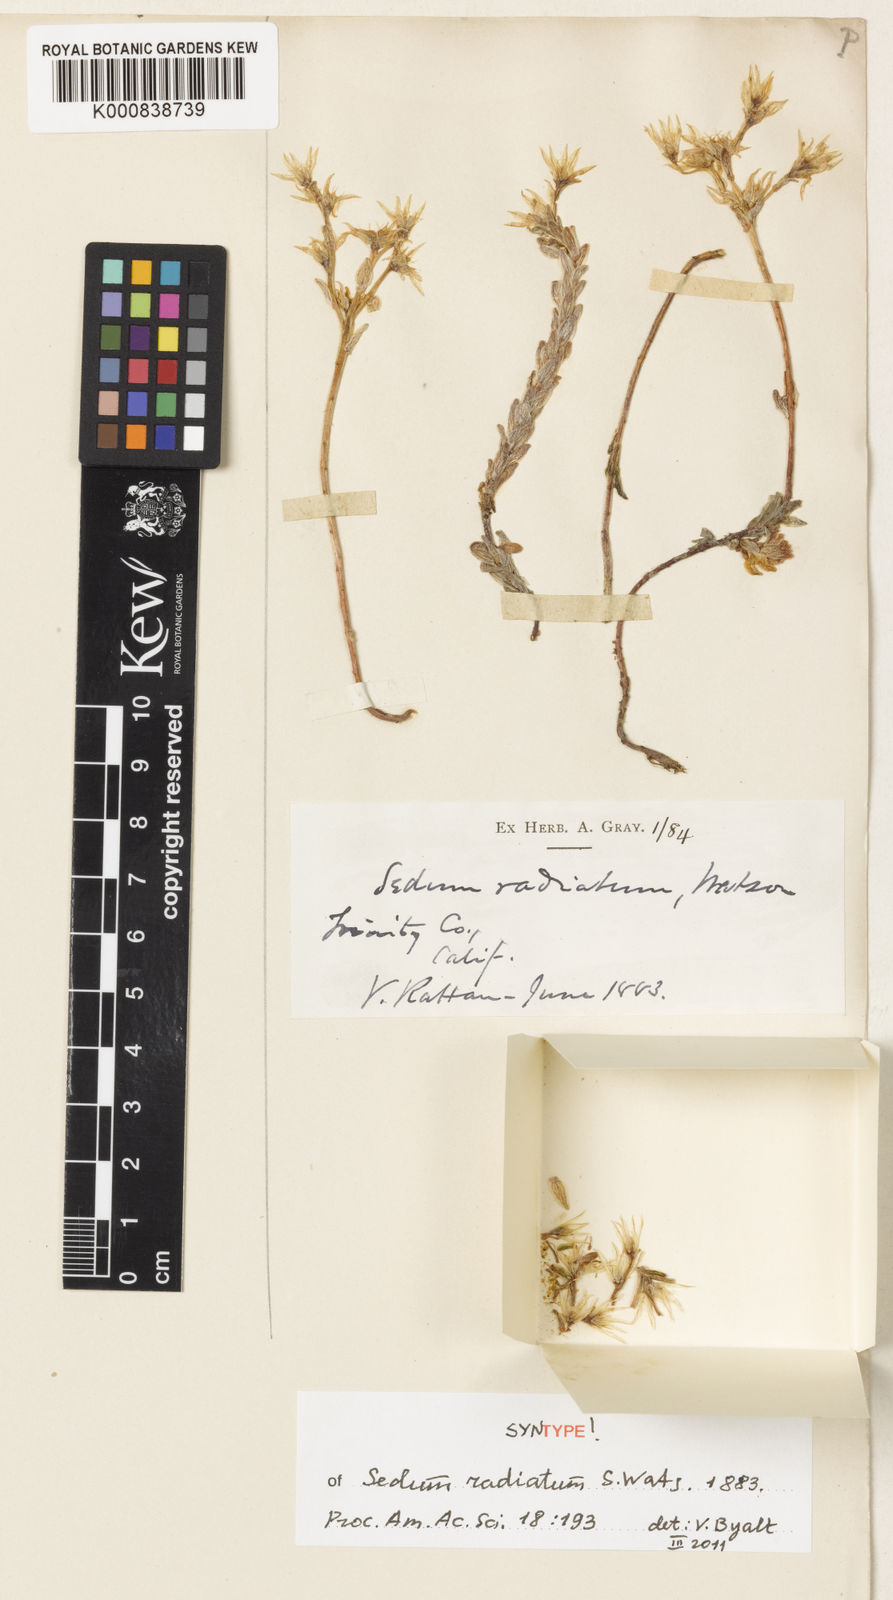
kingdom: Plantae
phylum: Tracheophyta
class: Magnoliopsida
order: Saxifragales
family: Crassulaceae
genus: Sedum
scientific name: Sedum radiatum
